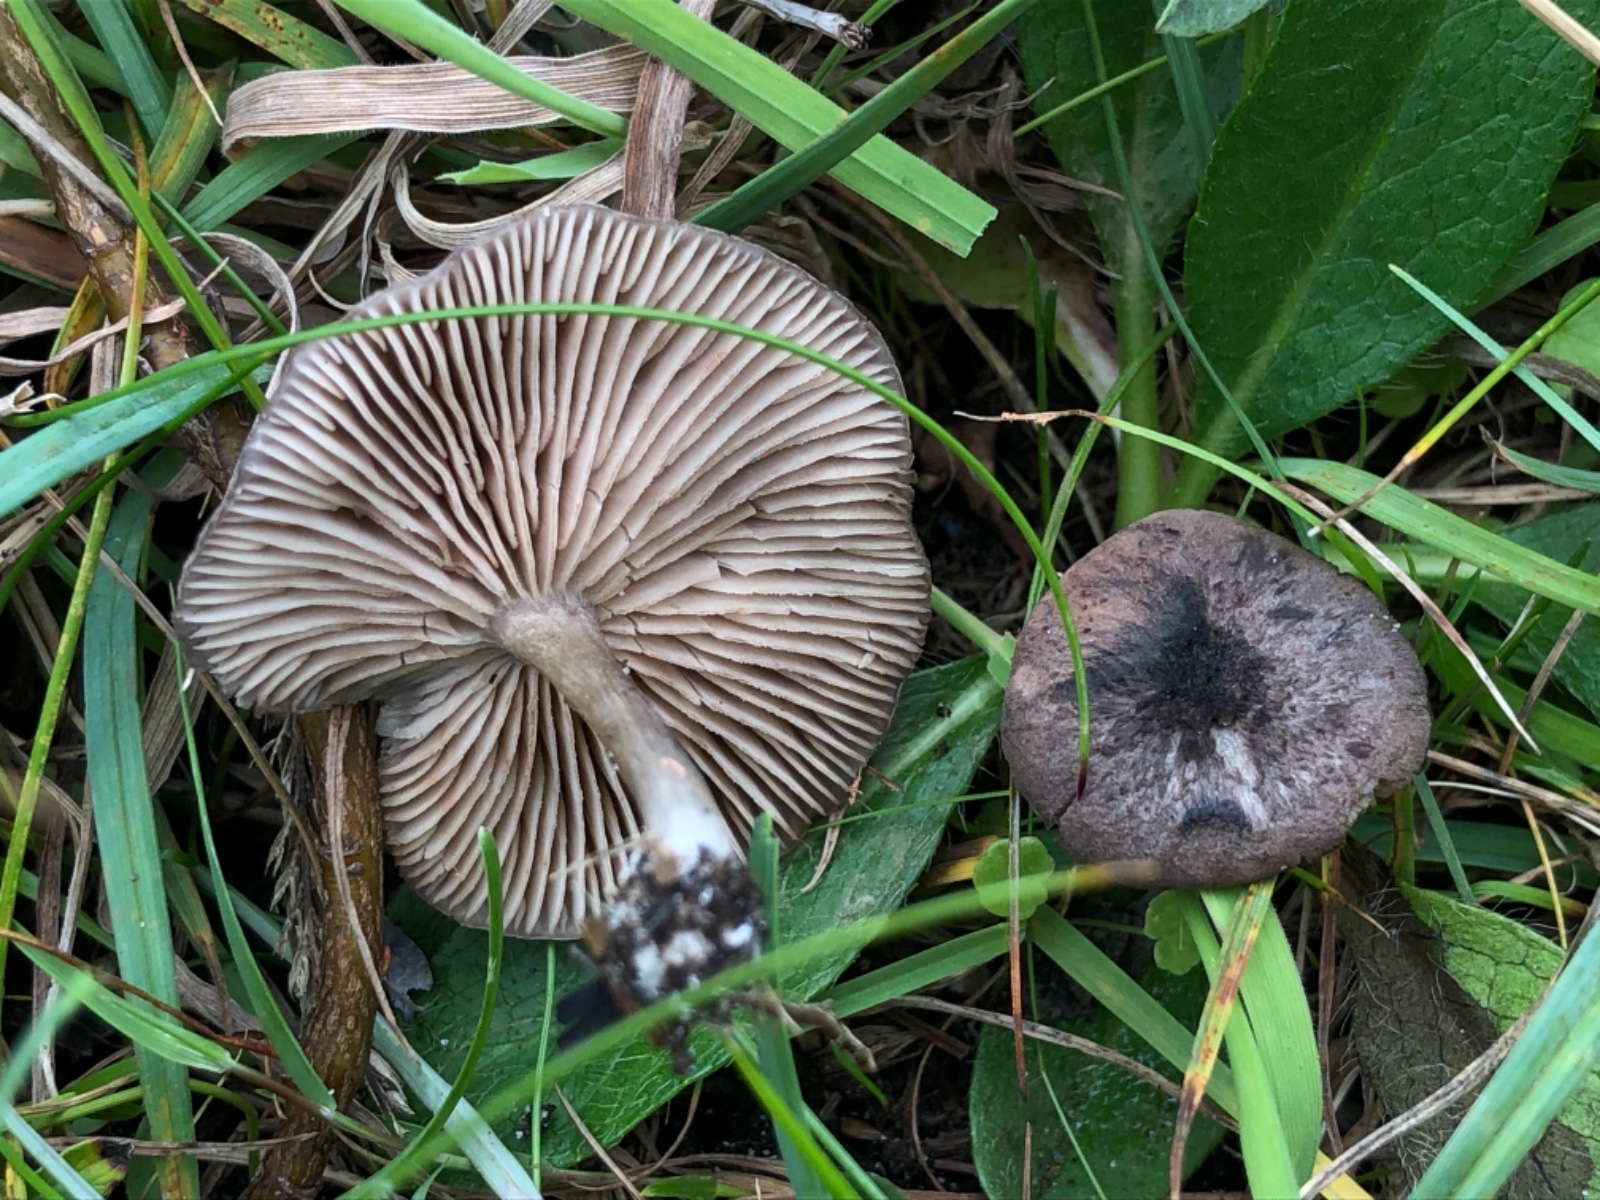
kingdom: Fungi
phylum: Basidiomycota
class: Agaricomycetes
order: Agaricales
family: Entolomataceae
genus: Entoloma
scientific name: Entoloma mougeotii
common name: violetgrå rødblad
